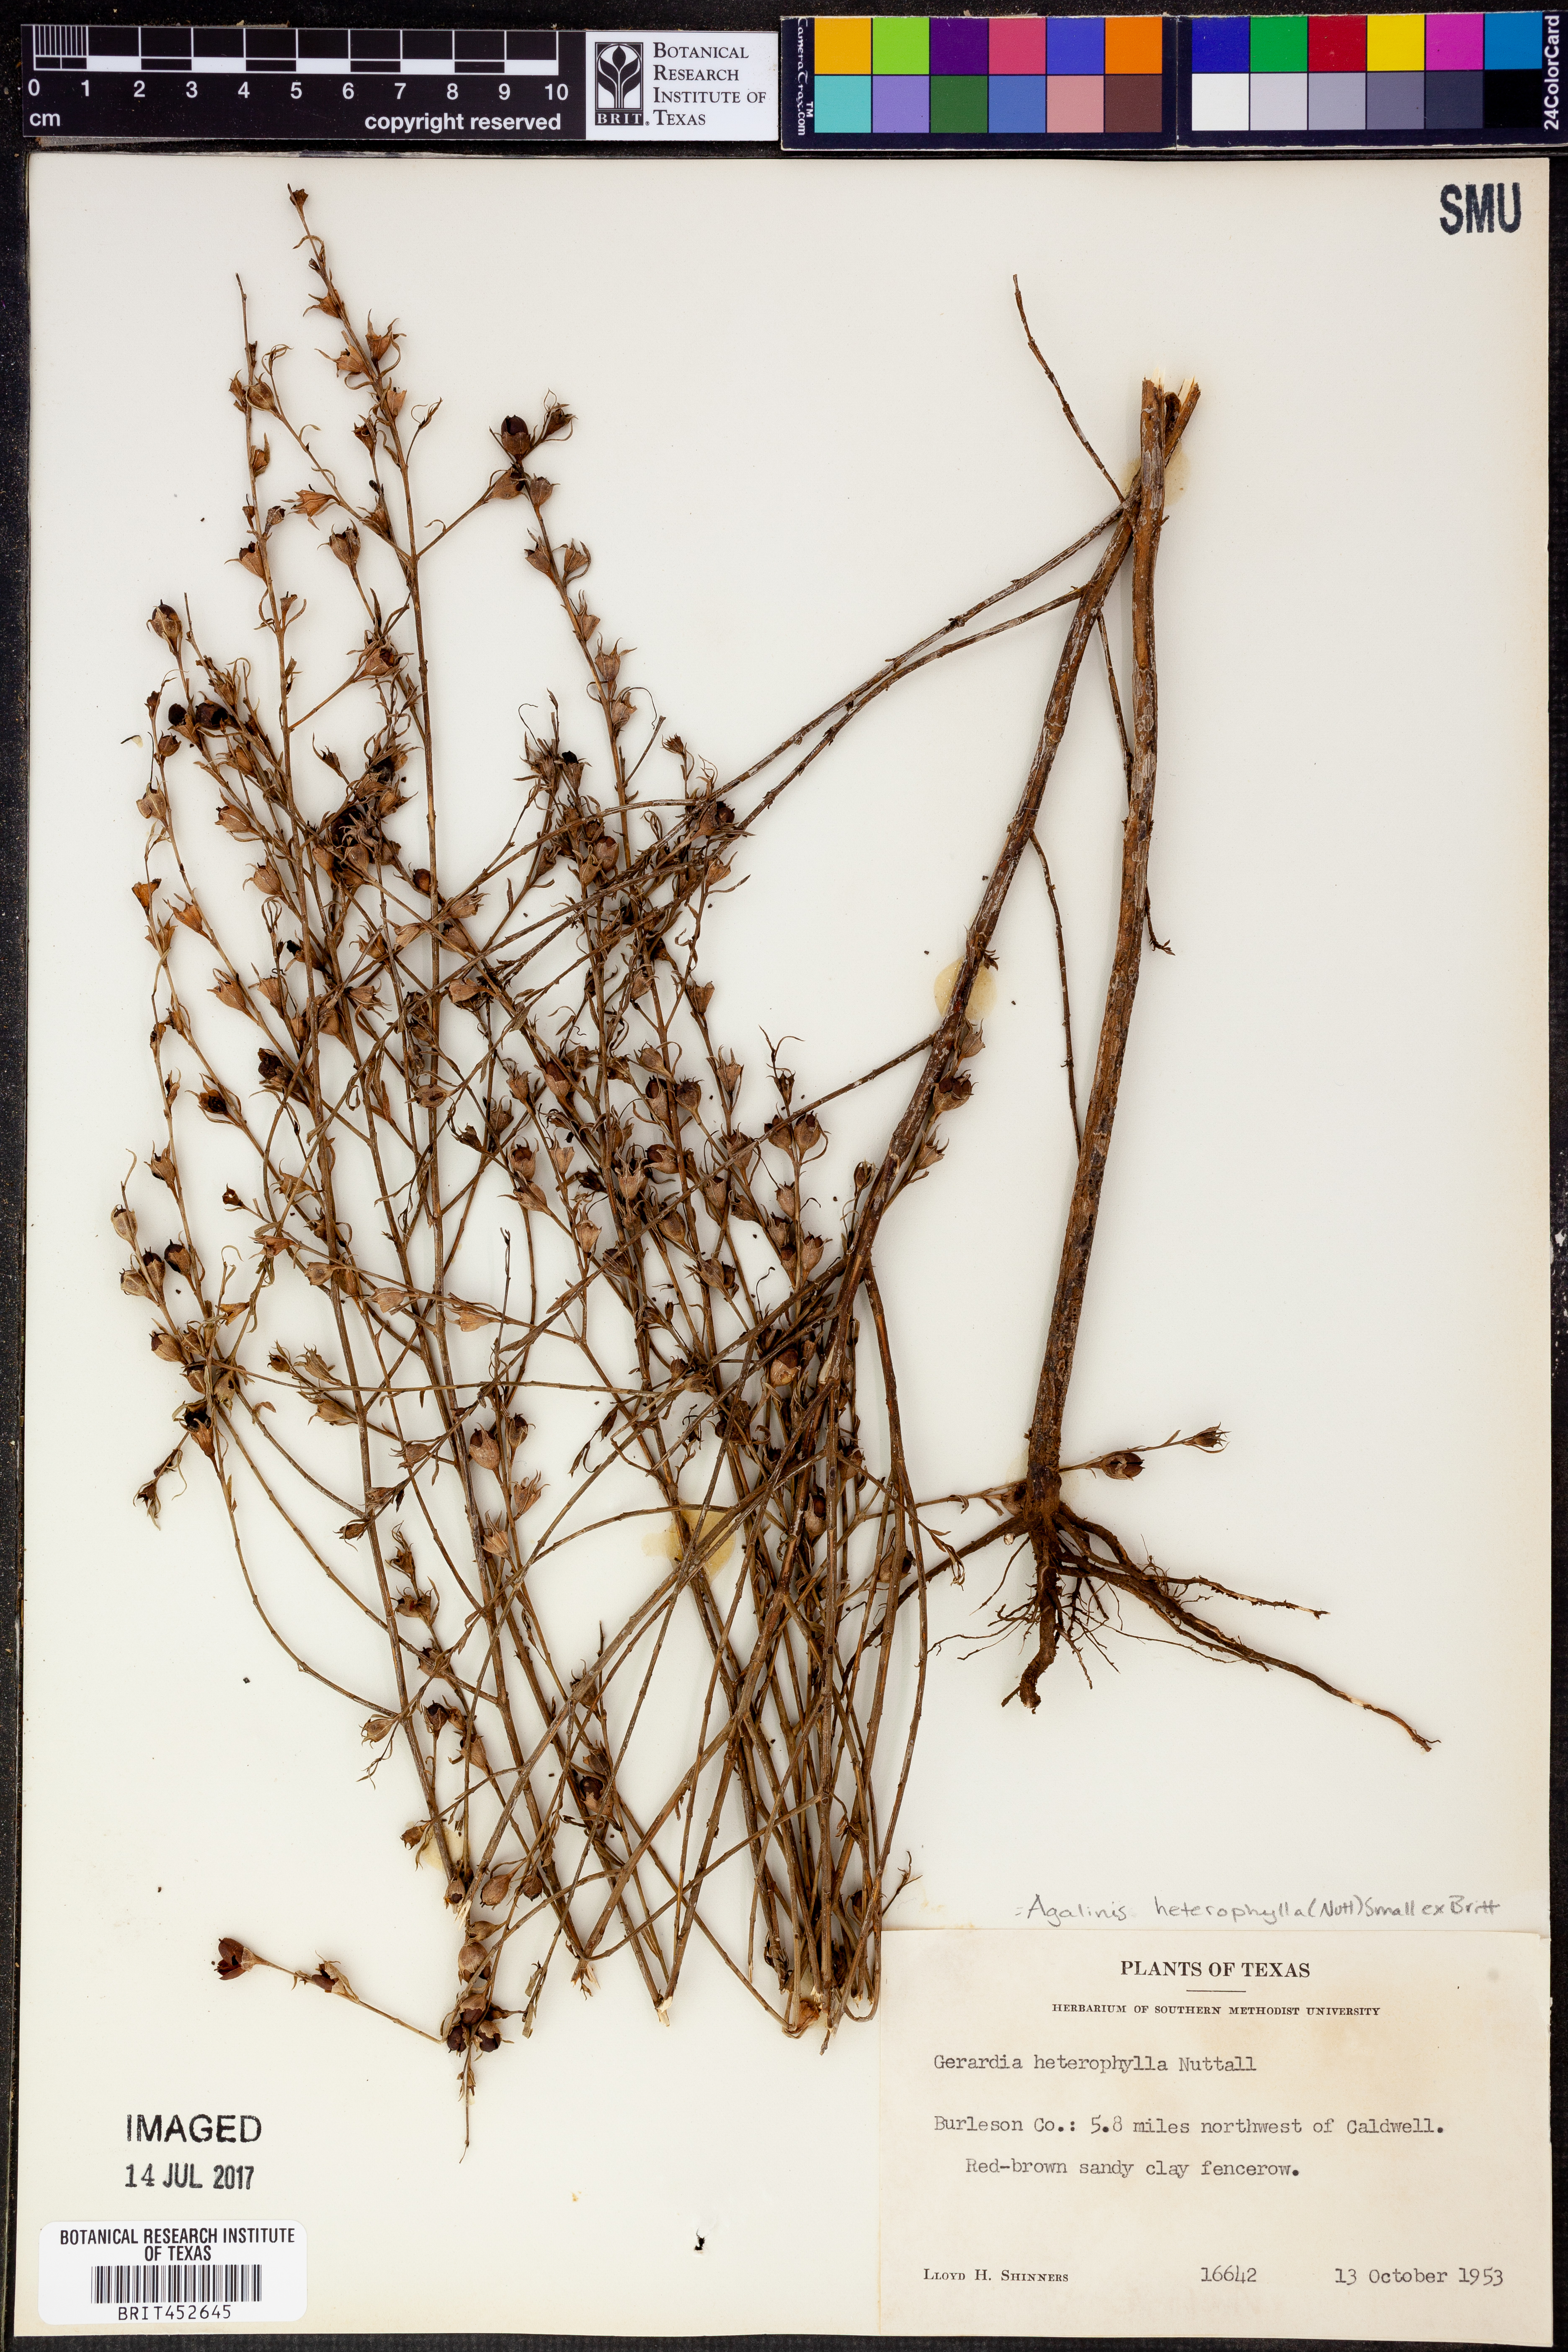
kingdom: Plantae
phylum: Tracheophyta
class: Magnoliopsida
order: Lamiales
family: Orobanchaceae
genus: Agalinis
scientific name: Agalinis heterophylla
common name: Prairie agalinis
